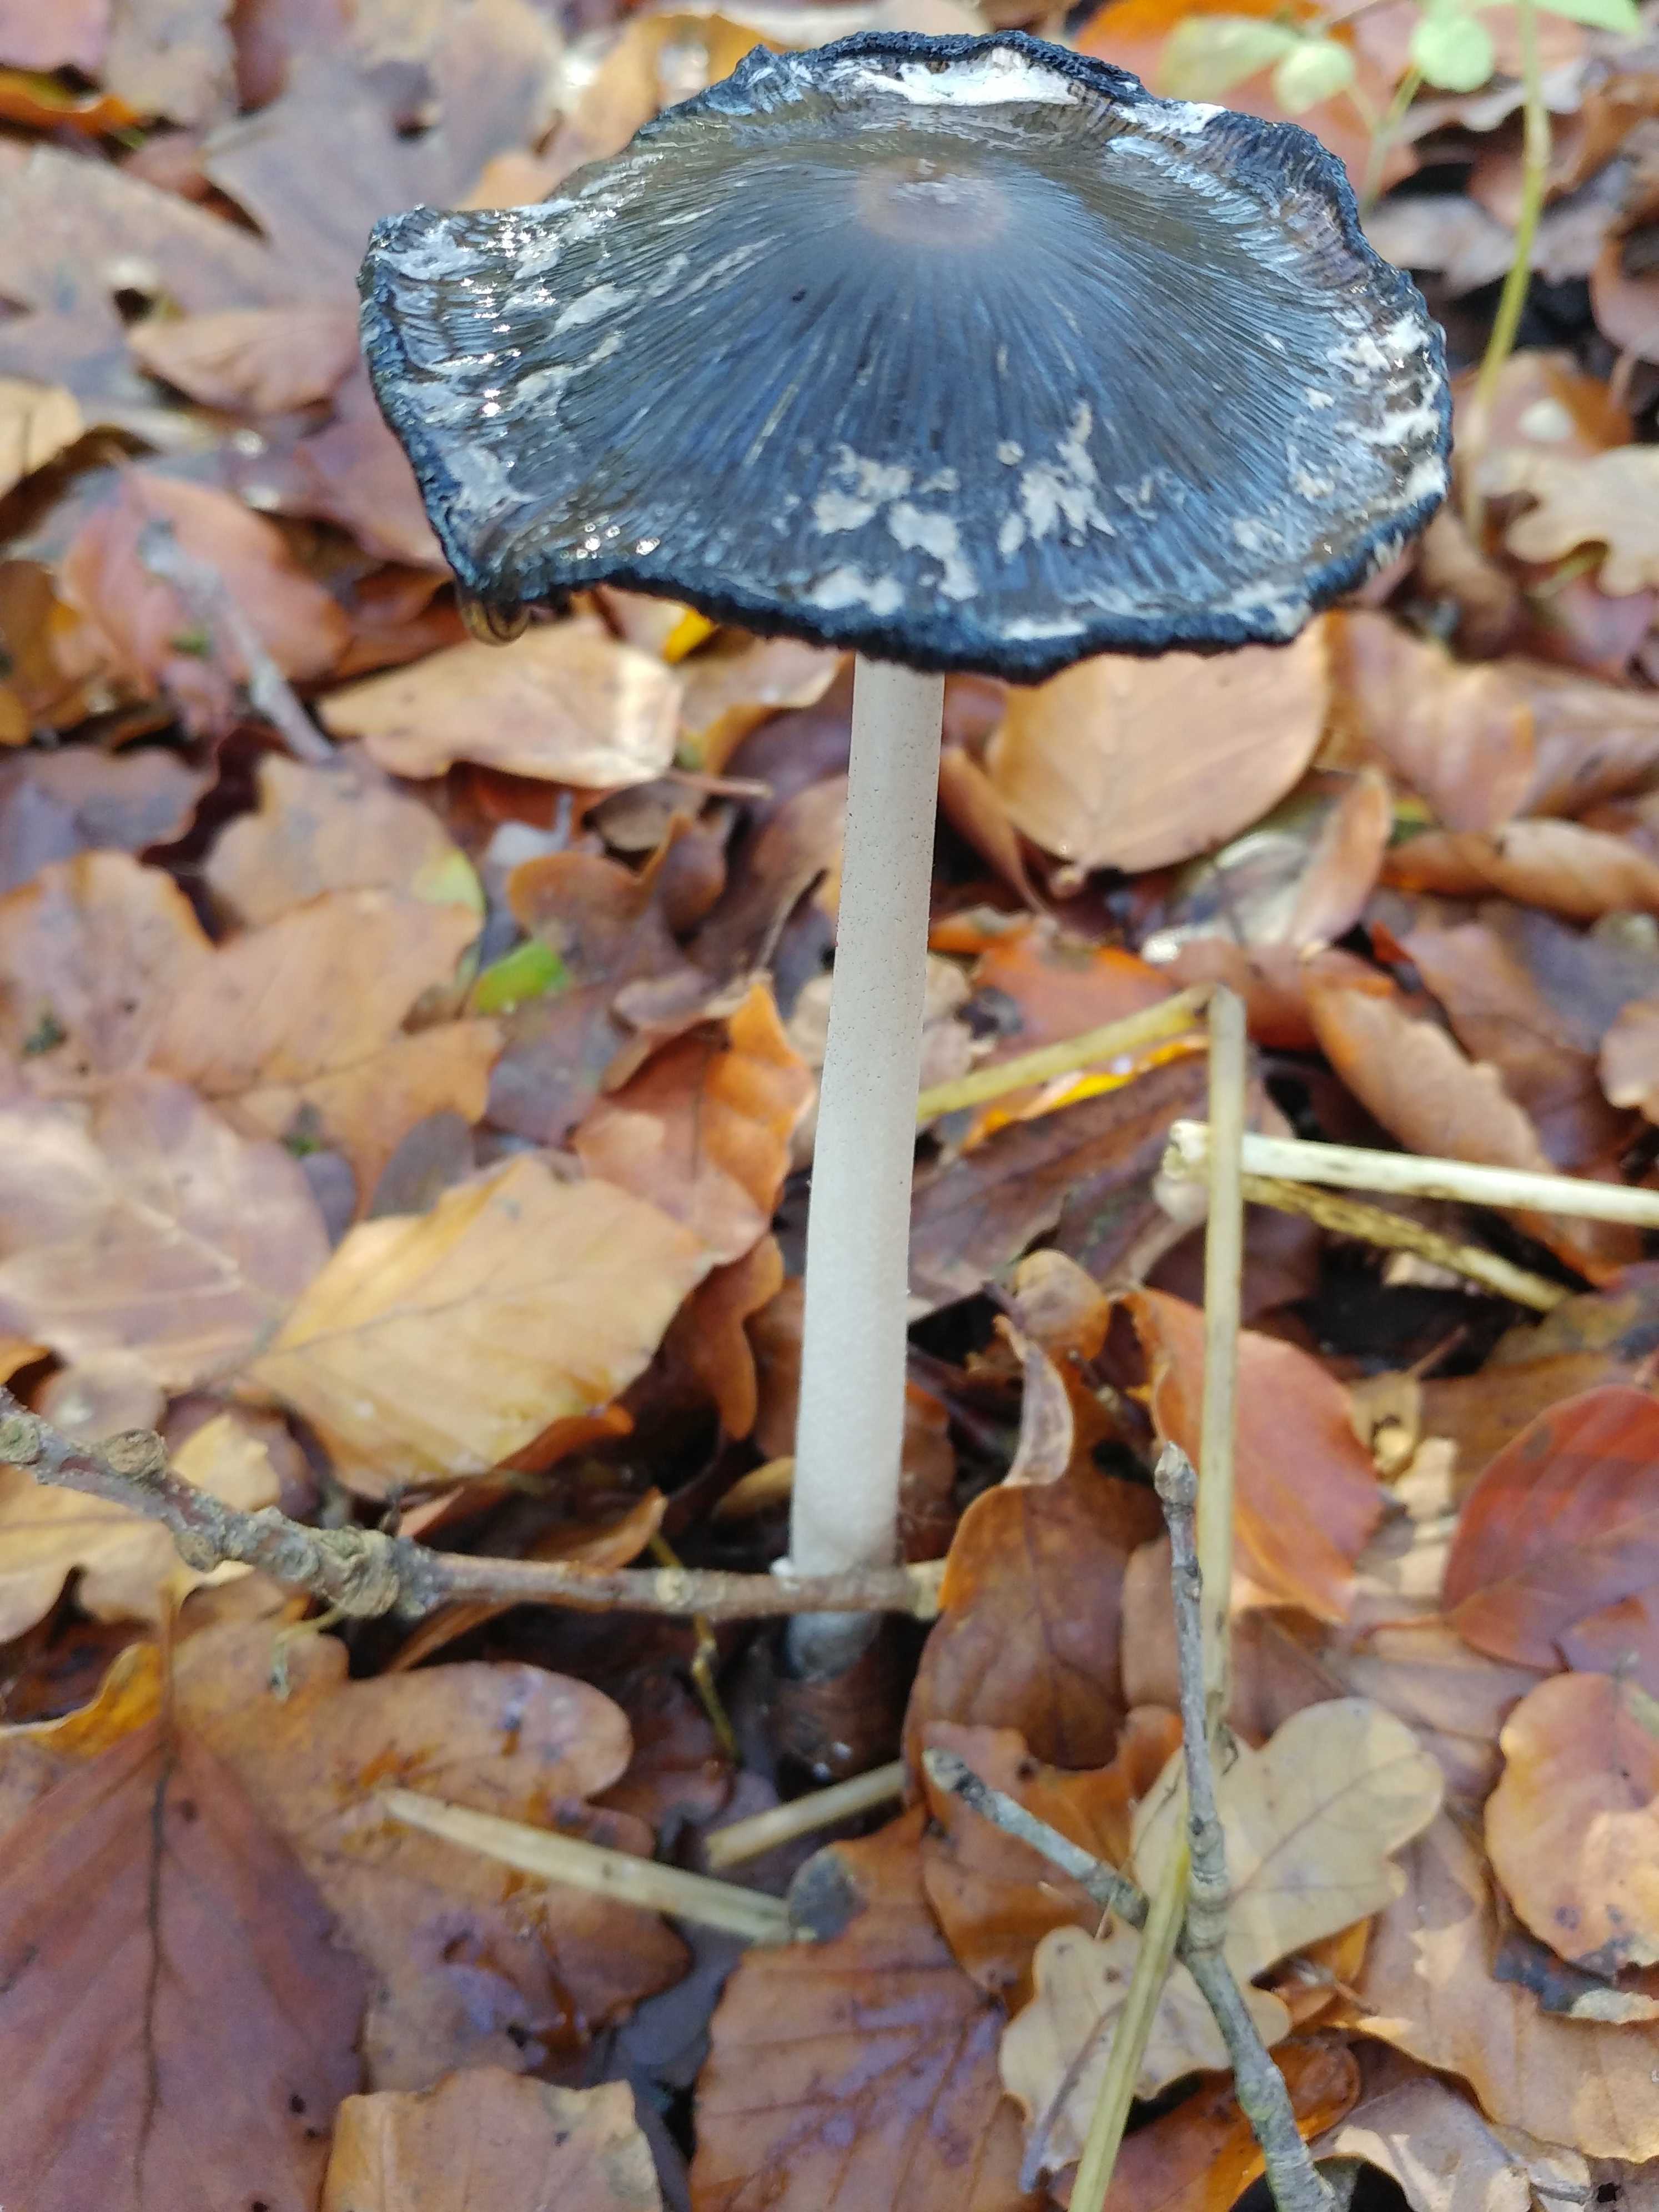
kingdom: Fungi
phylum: Basidiomycota
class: Agaricomycetes
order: Agaricales
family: Psathyrellaceae
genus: Coprinopsis
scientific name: Coprinopsis picacea
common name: skade-blækhat
